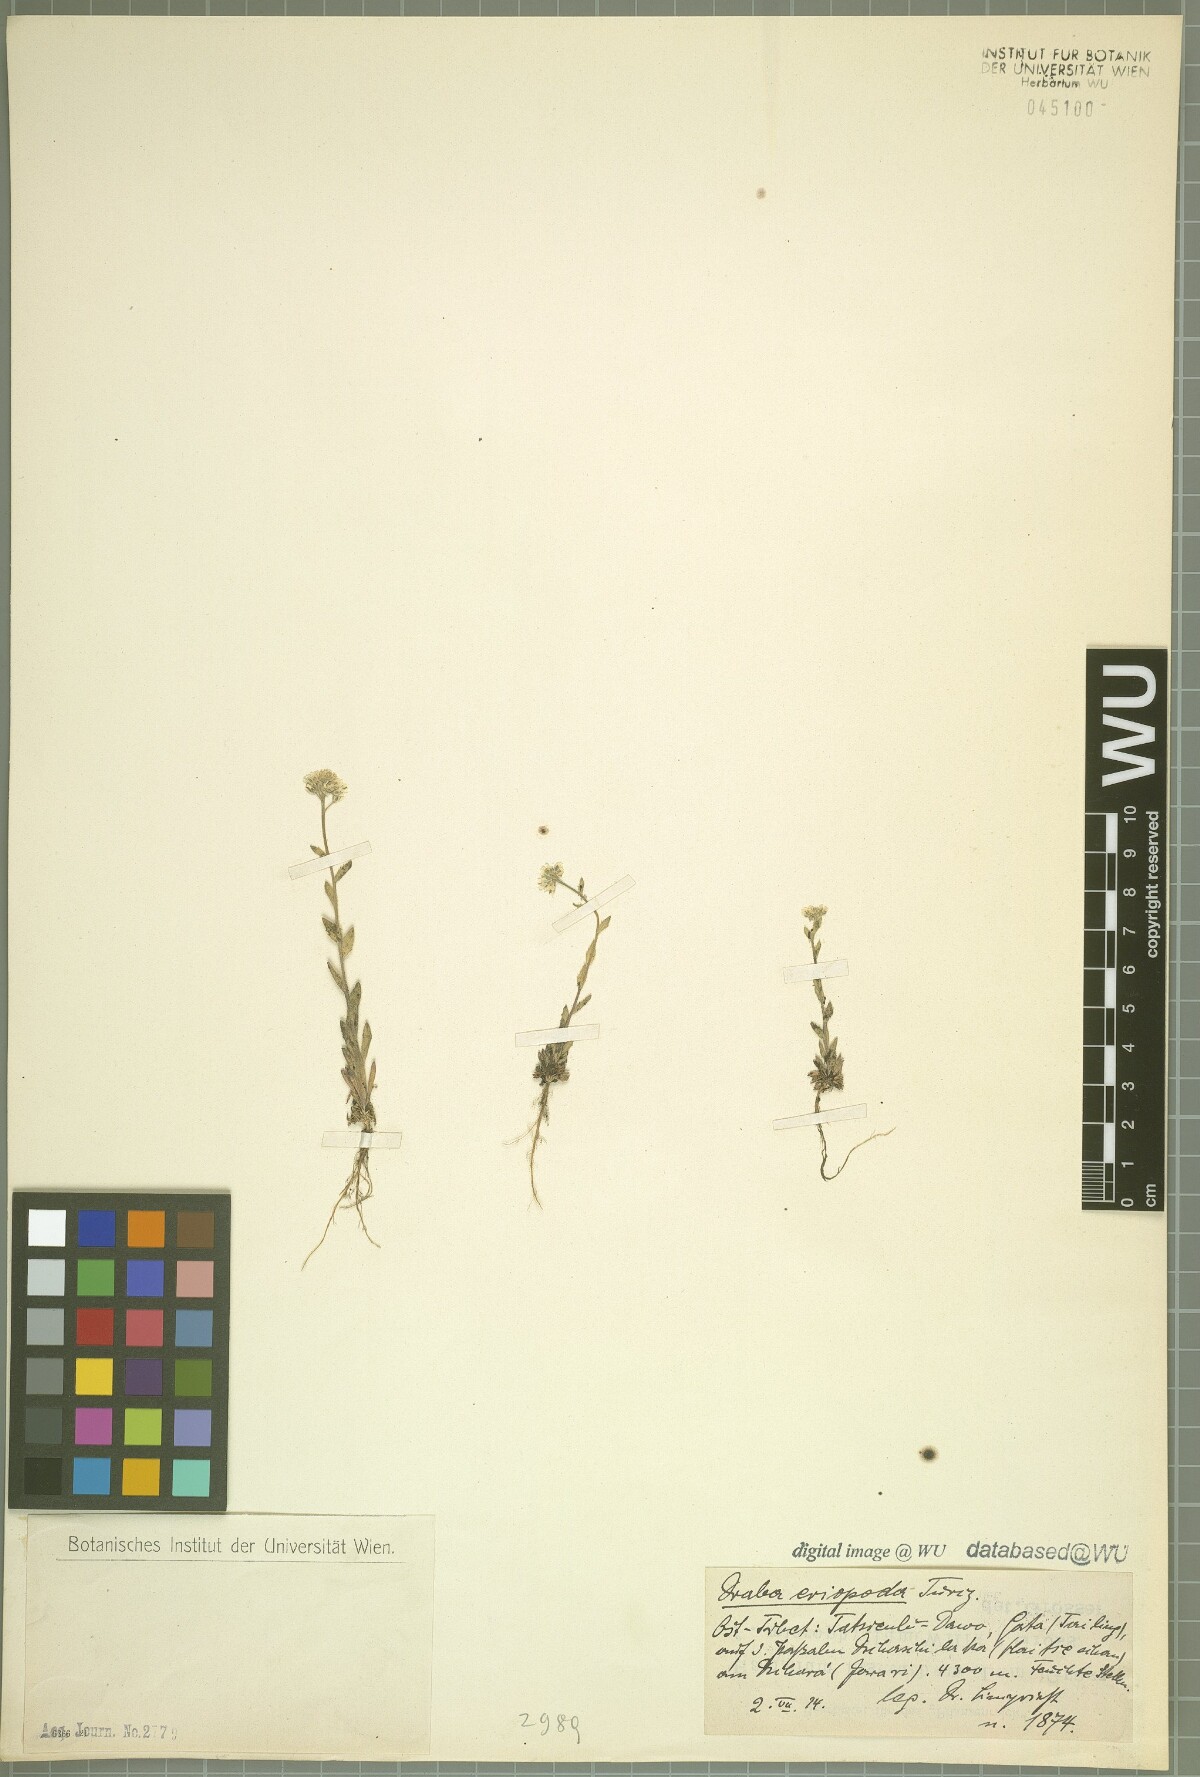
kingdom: Plantae
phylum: Tracheophyta
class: Magnoliopsida
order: Brassicales
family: Brassicaceae
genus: Draba
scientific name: Draba eriopoda
